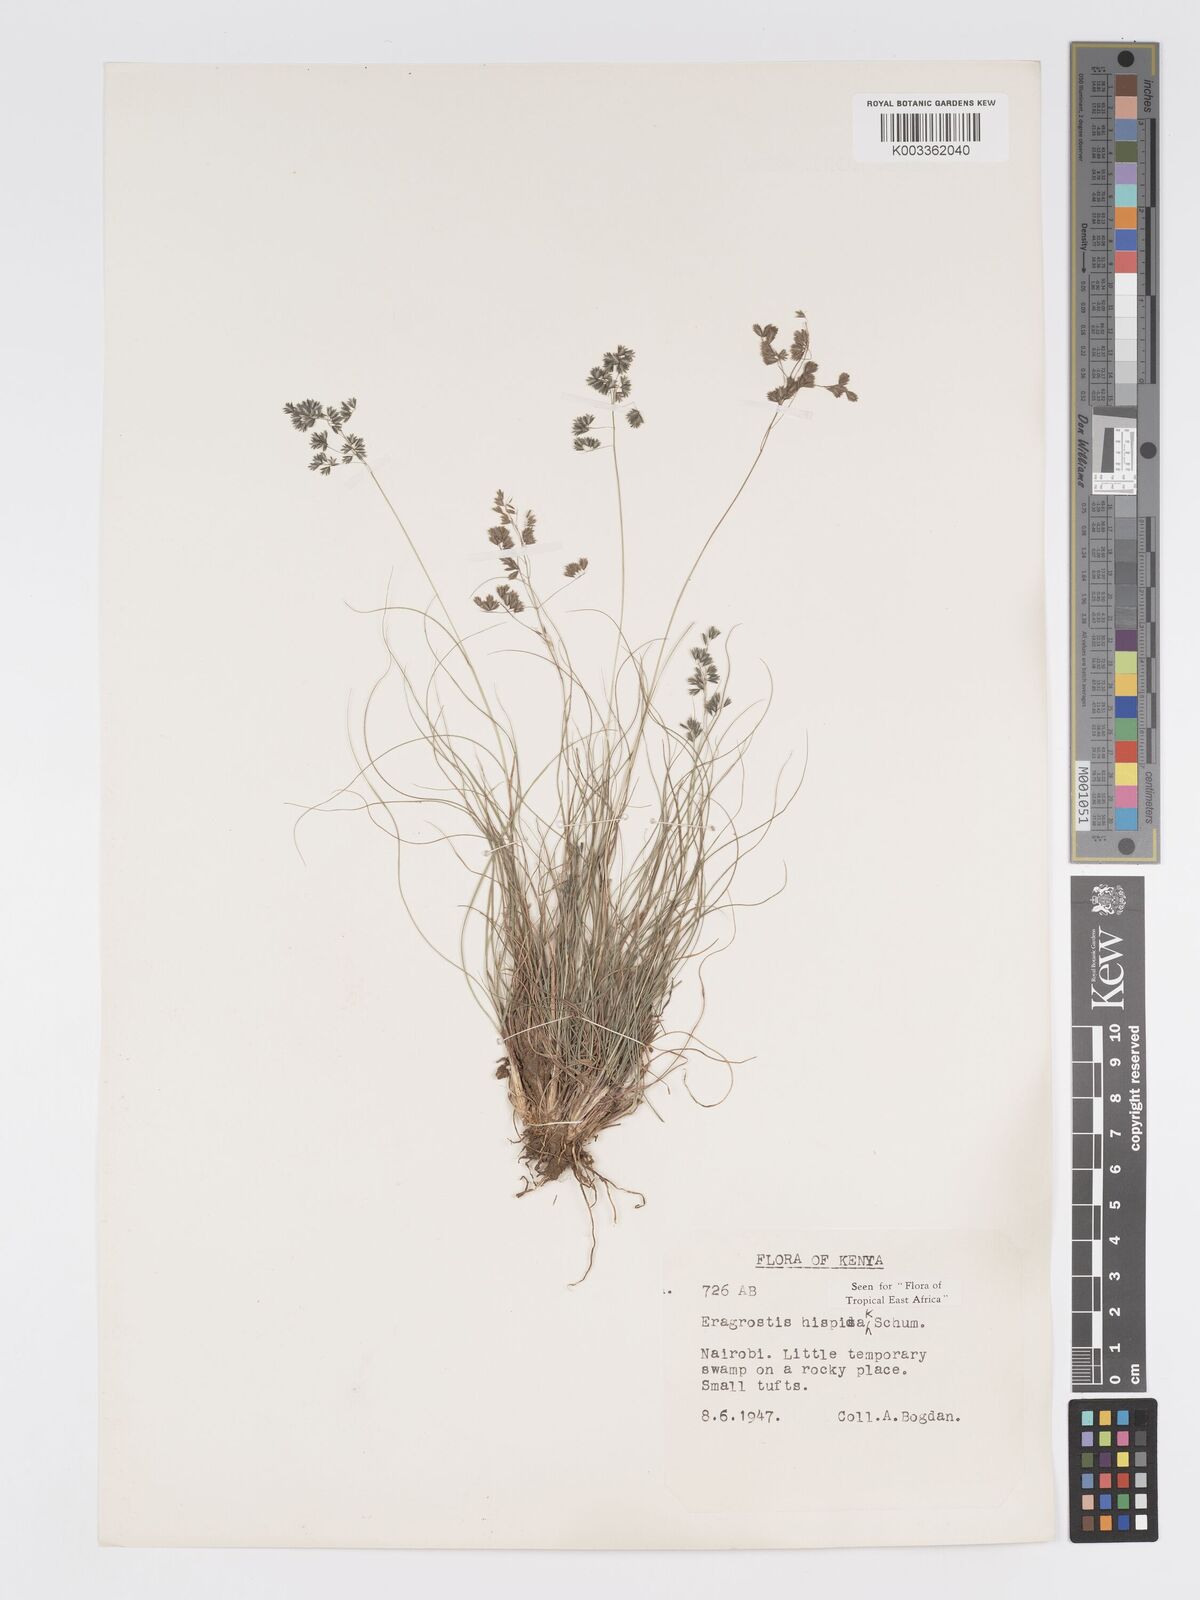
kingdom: Plantae
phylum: Tracheophyta
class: Liliopsida
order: Poales
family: Poaceae
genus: Eragrostis
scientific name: Eragrostis hispida
